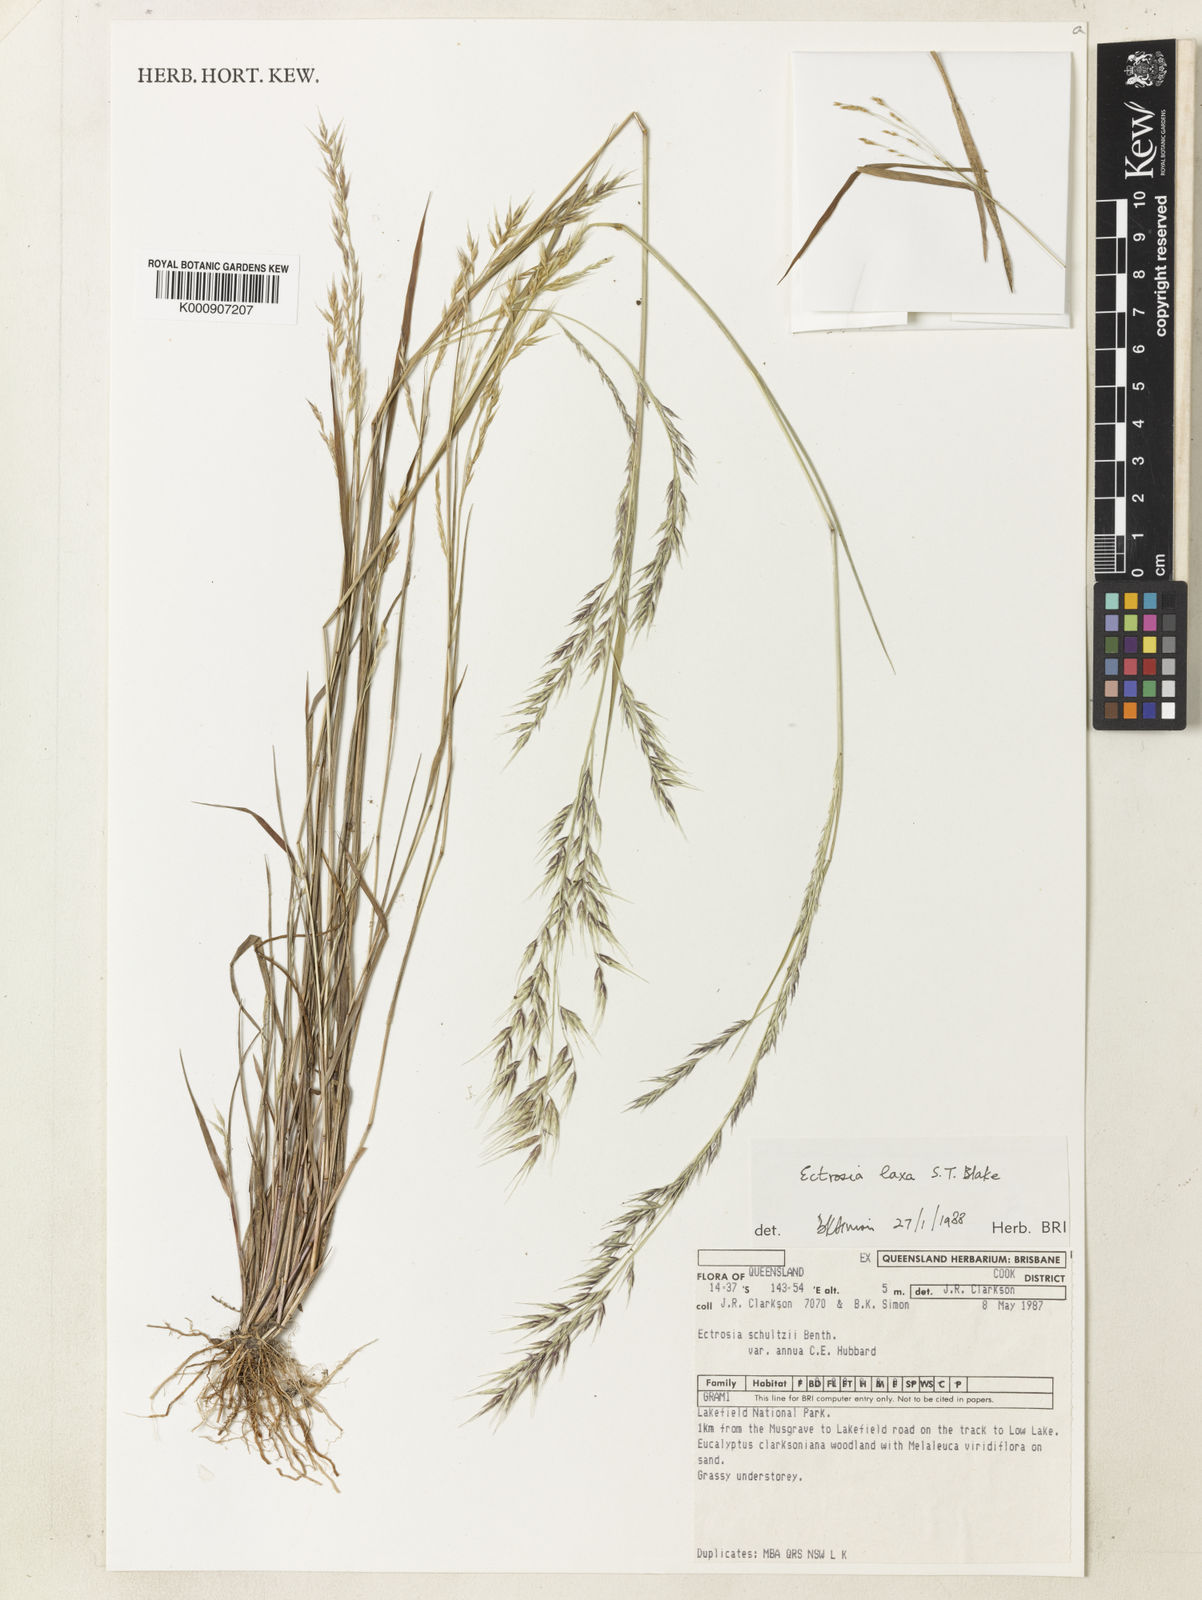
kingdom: Plantae
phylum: Tracheophyta
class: Liliopsida
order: Poales
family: Poaceae
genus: Eragrostis
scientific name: Eragrostis ovata
